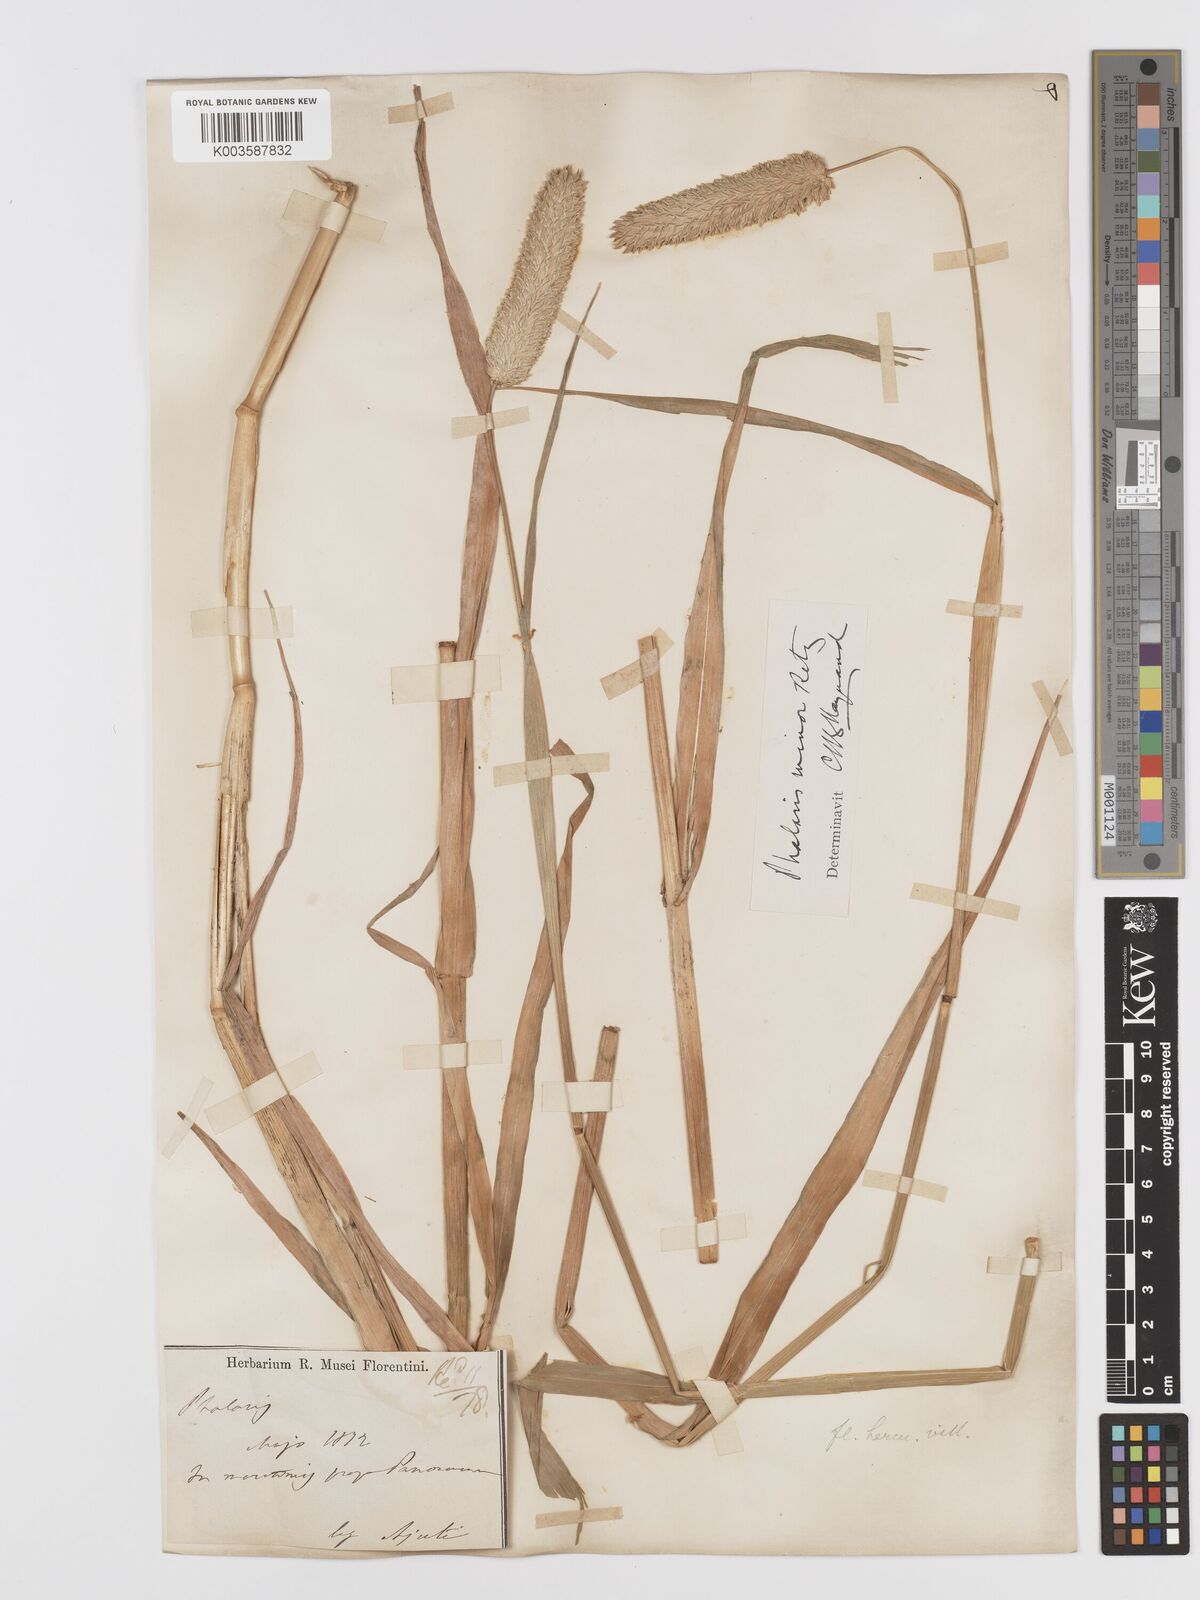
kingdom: Plantae
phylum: Tracheophyta
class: Liliopsida
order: Poales
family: Poaceae
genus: Phalaris
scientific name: Phalaris minor
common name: Littleseed canarygrass
